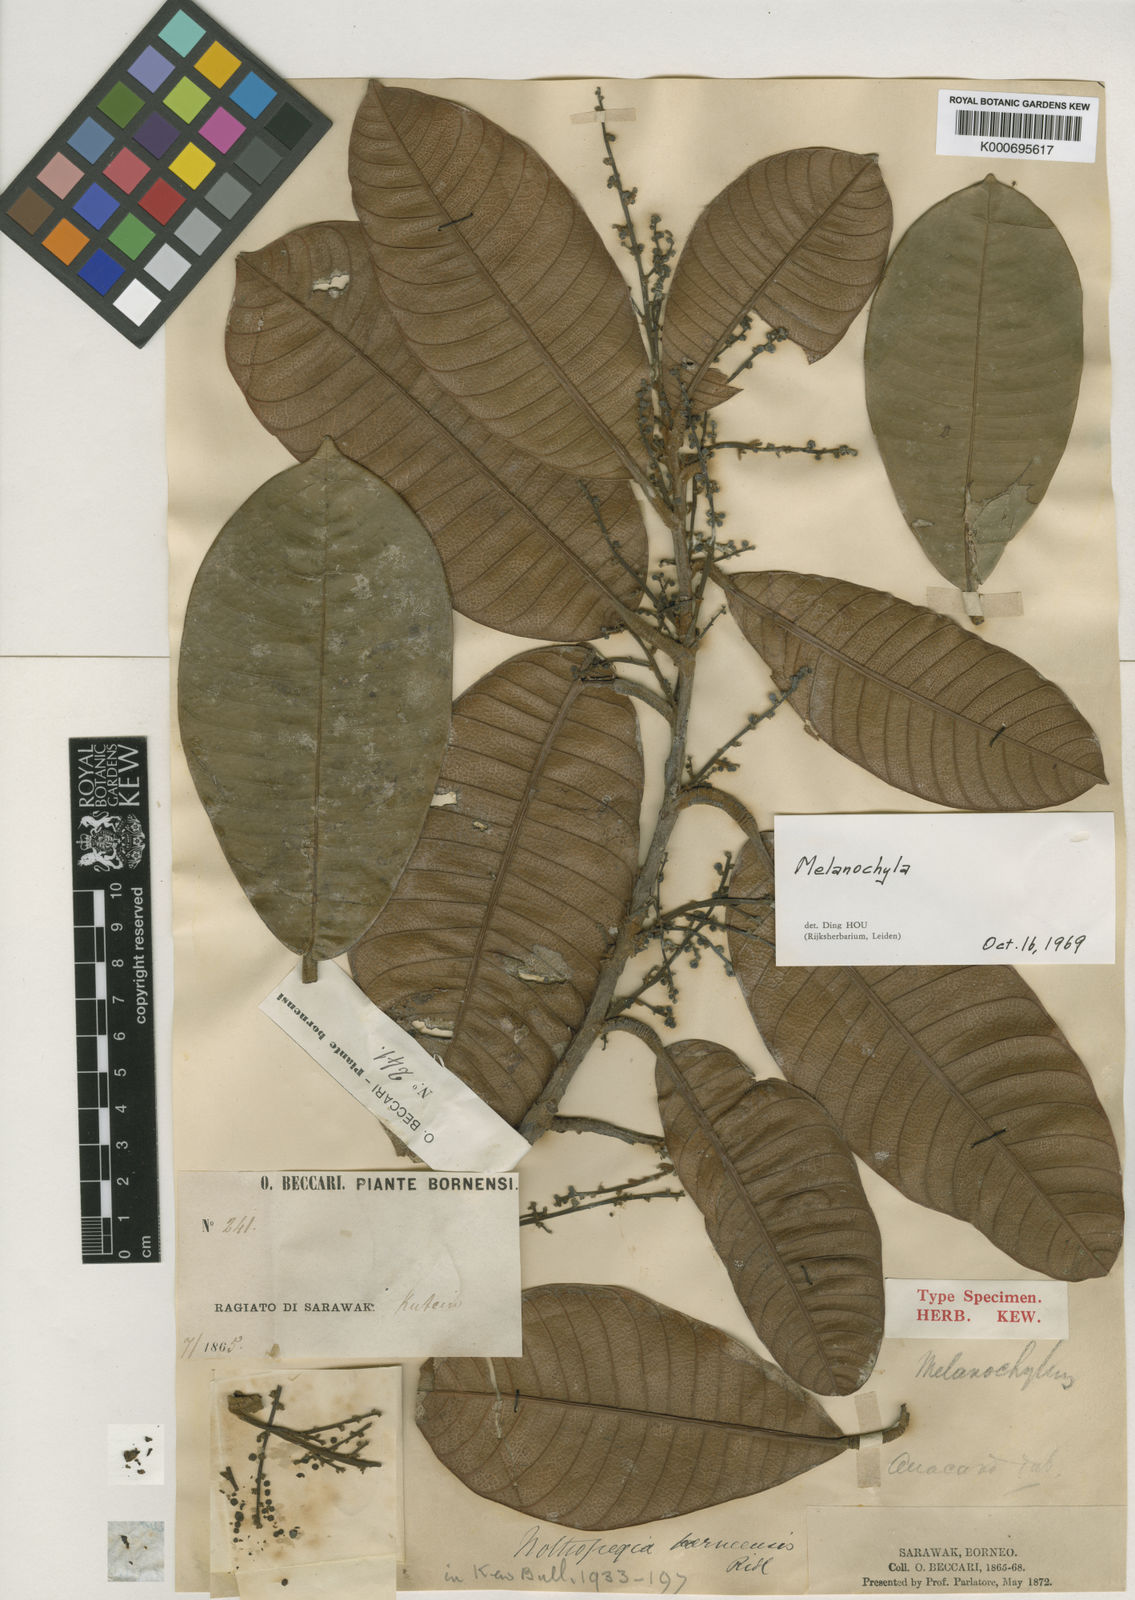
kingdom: Plantae
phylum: Tracheophyta
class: Magnoliopsida
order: Sapindales
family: Anacardiaceae
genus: Melanochyla
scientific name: Melanochyla borneensis
